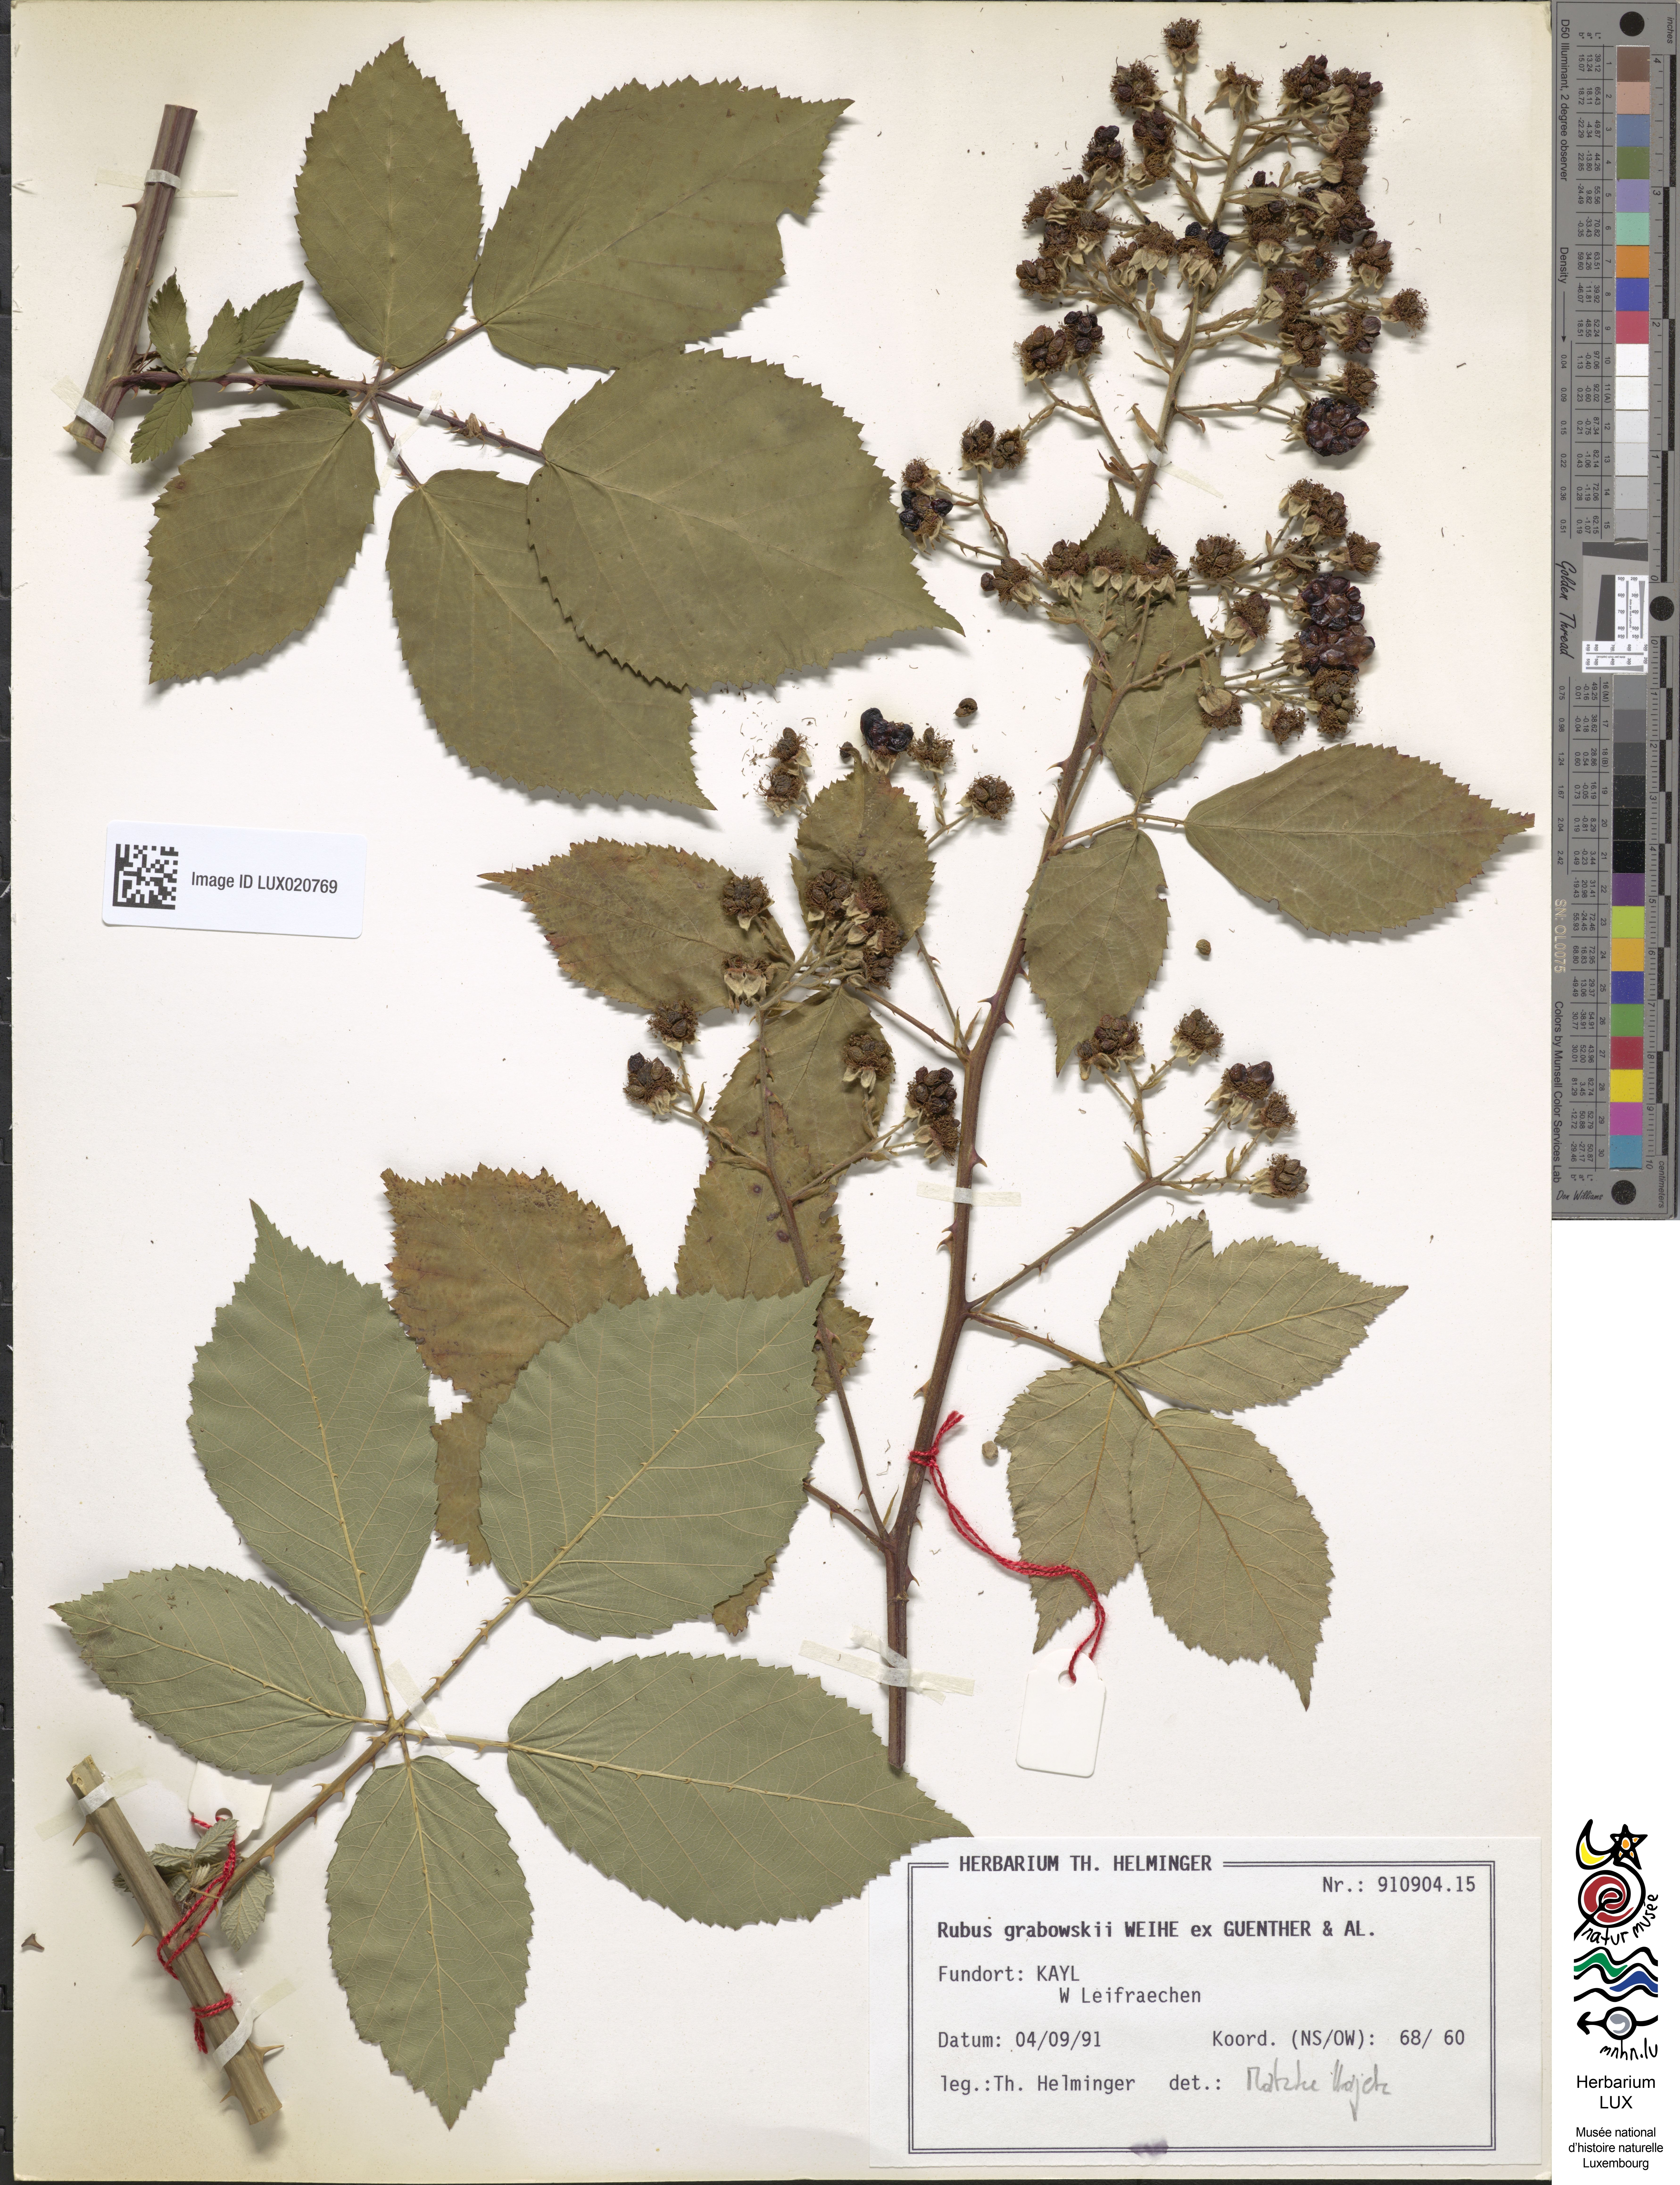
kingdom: Plantae
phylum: Tracheophyta
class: Magnoliopsida
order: Rosales
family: Rosaceae
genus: Rubus
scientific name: Rubus grabowskii
